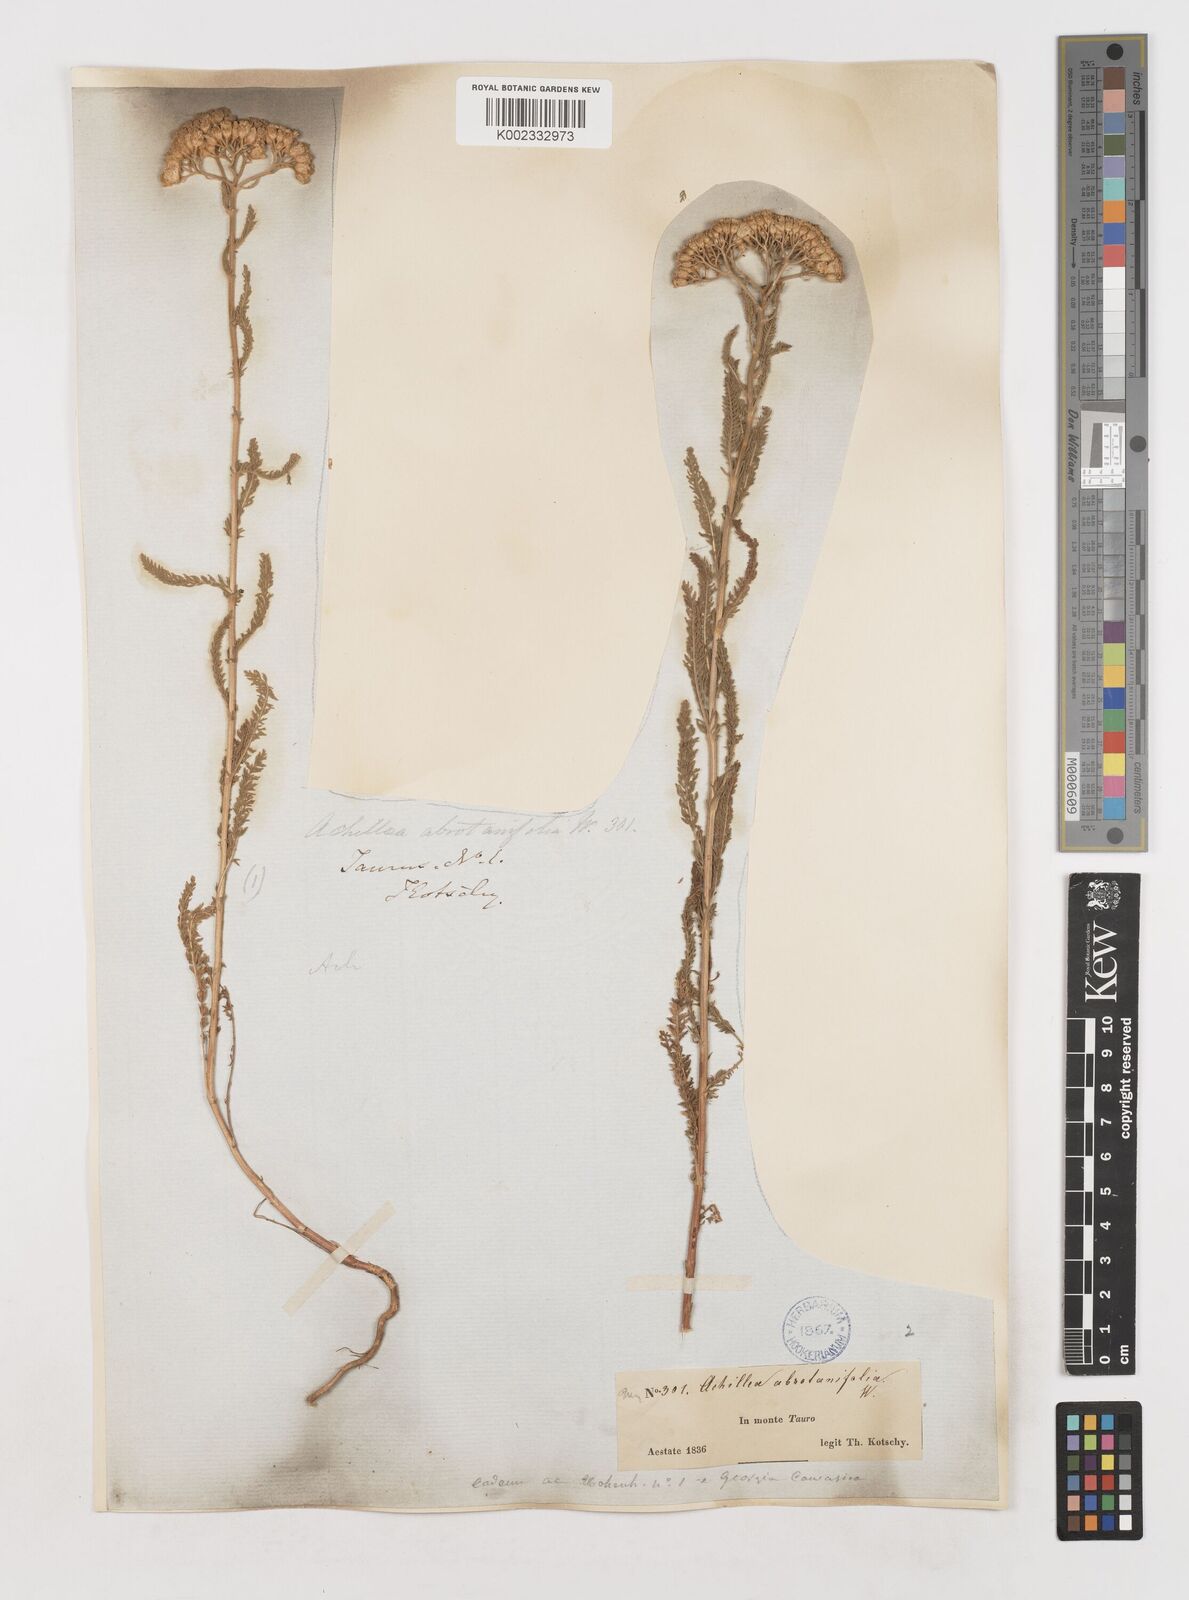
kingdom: Plantae
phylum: Tracheophyta
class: Magnoliopsida
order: Asterales
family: Asteraceae
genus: Achillea
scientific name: Achillea arabica
